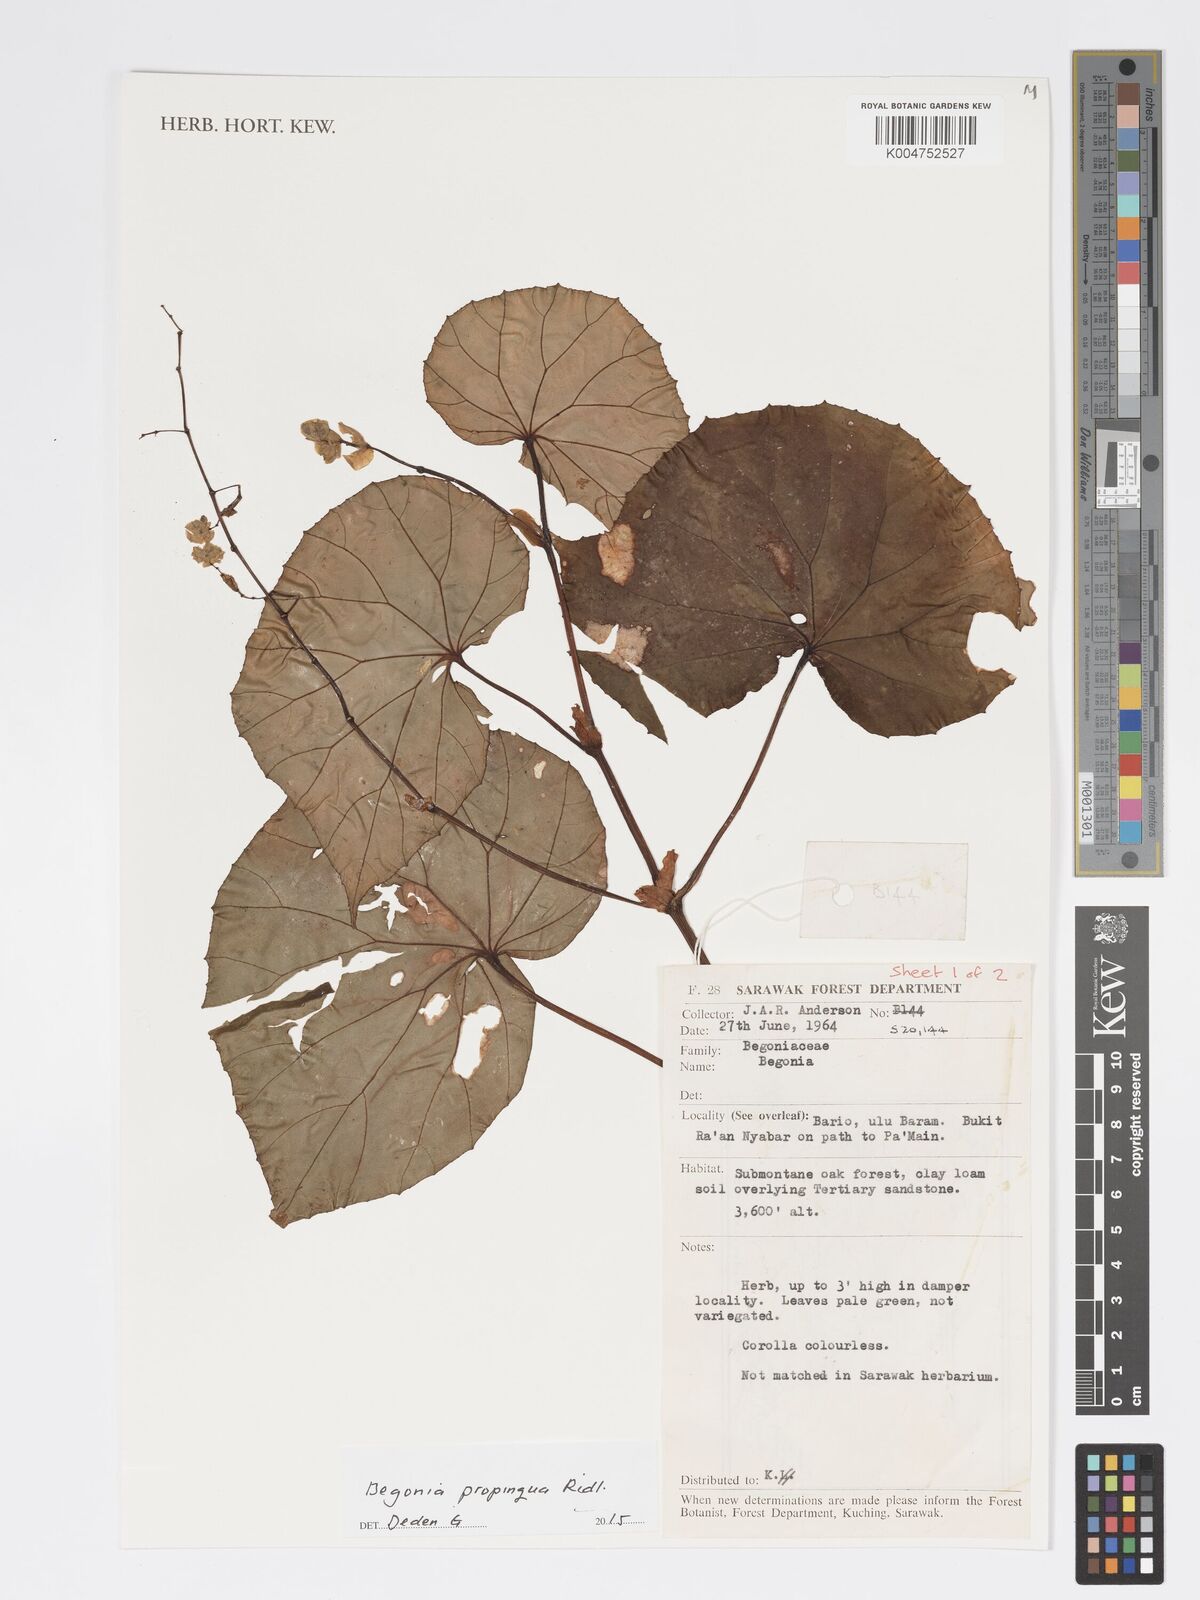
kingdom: Plantae
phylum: Tracheophyta
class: Magnoliopsida
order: Cucurbitales
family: Begoniaceae
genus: Begonia
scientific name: Begonia propinqua
